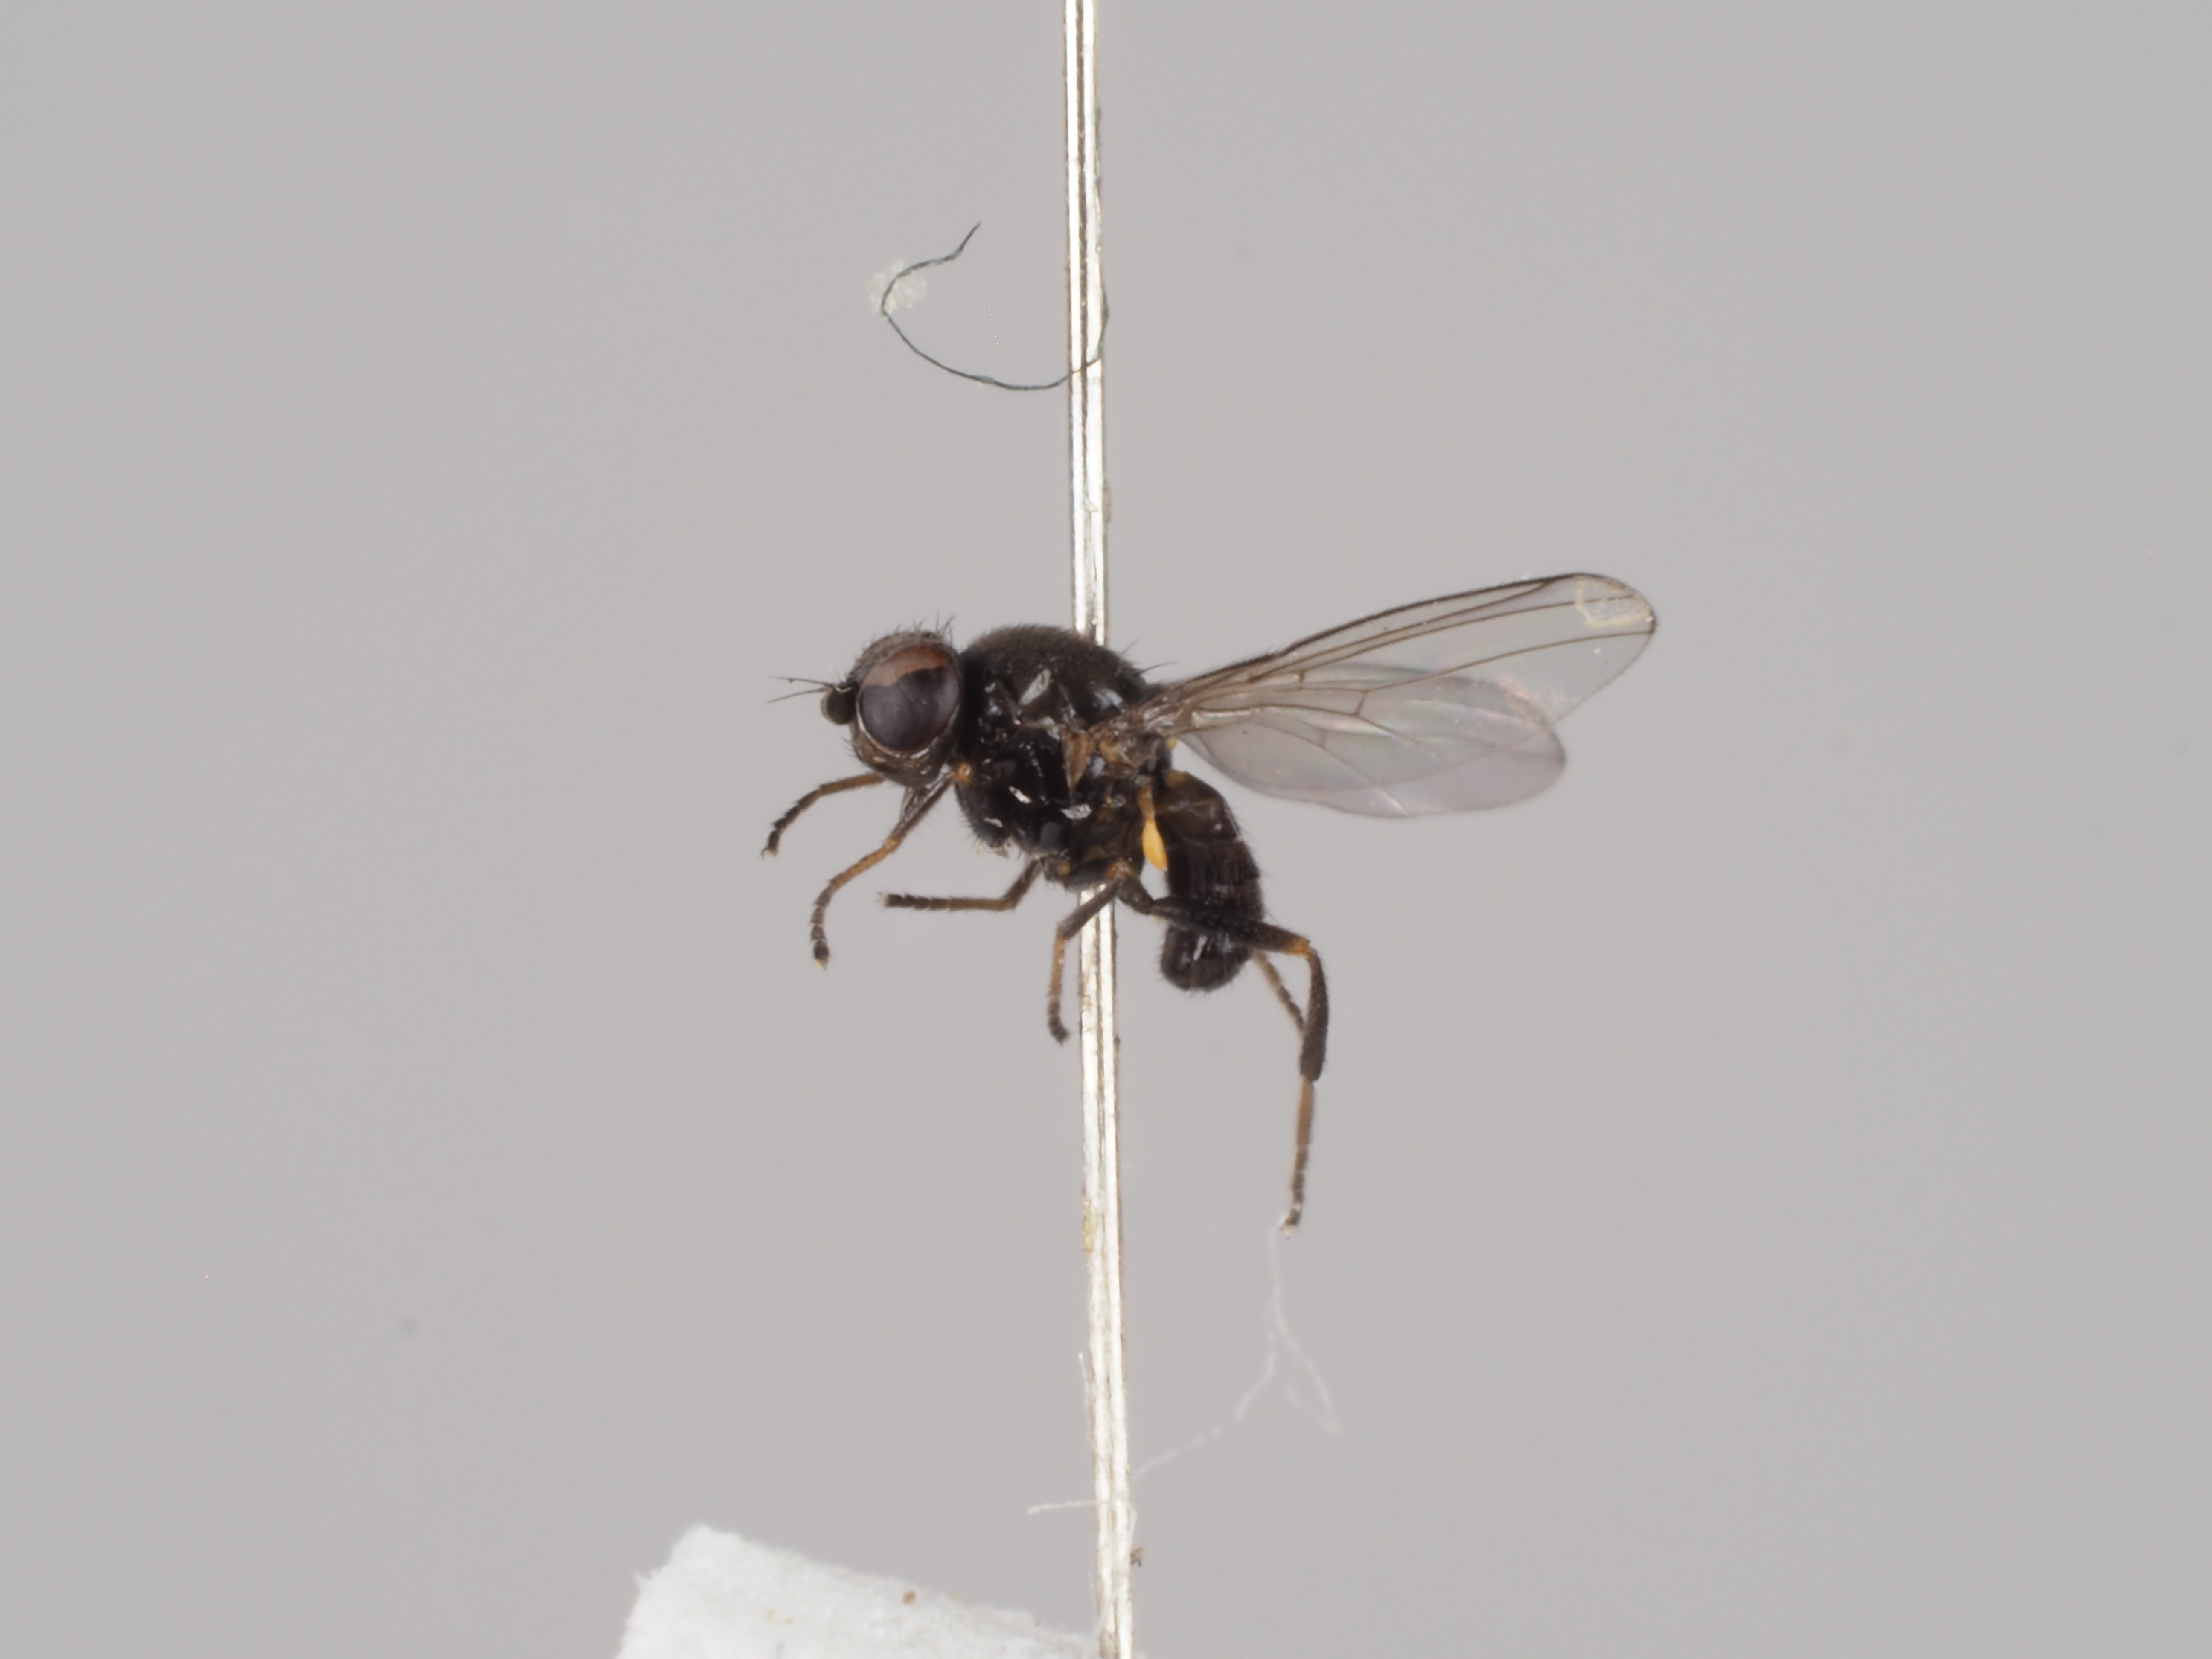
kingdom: Animalia
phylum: Arthropoda
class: Insecta
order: Diptera
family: Chloropidae
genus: Dicraeus
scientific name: Dicraeus nitidus
